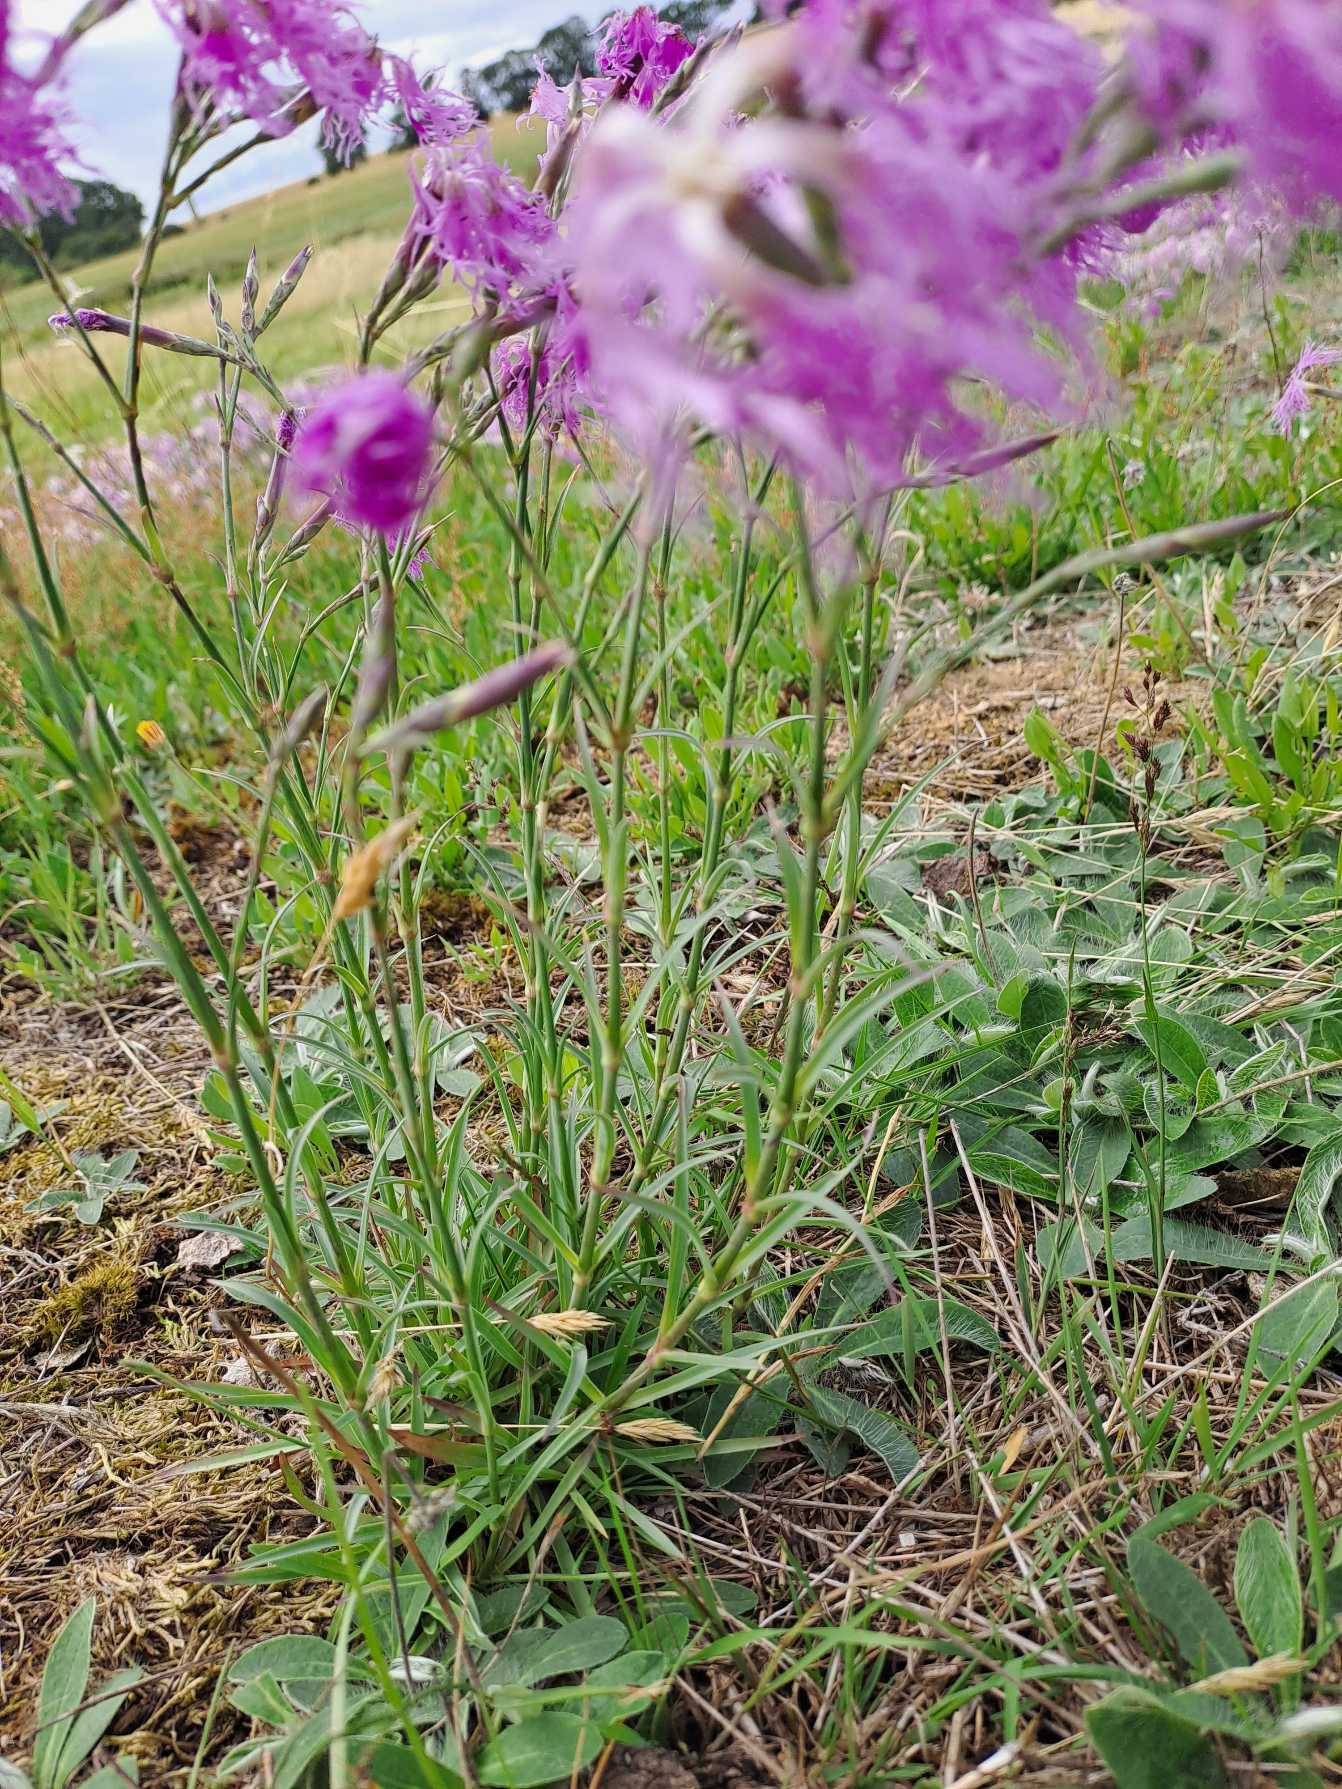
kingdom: Plantae
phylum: Tracheophyta
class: Magnoliopsida
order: Caryophyllales
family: Caryophyllaceae
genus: Dianthus
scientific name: Dianthus superbus
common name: Strand-nellike
